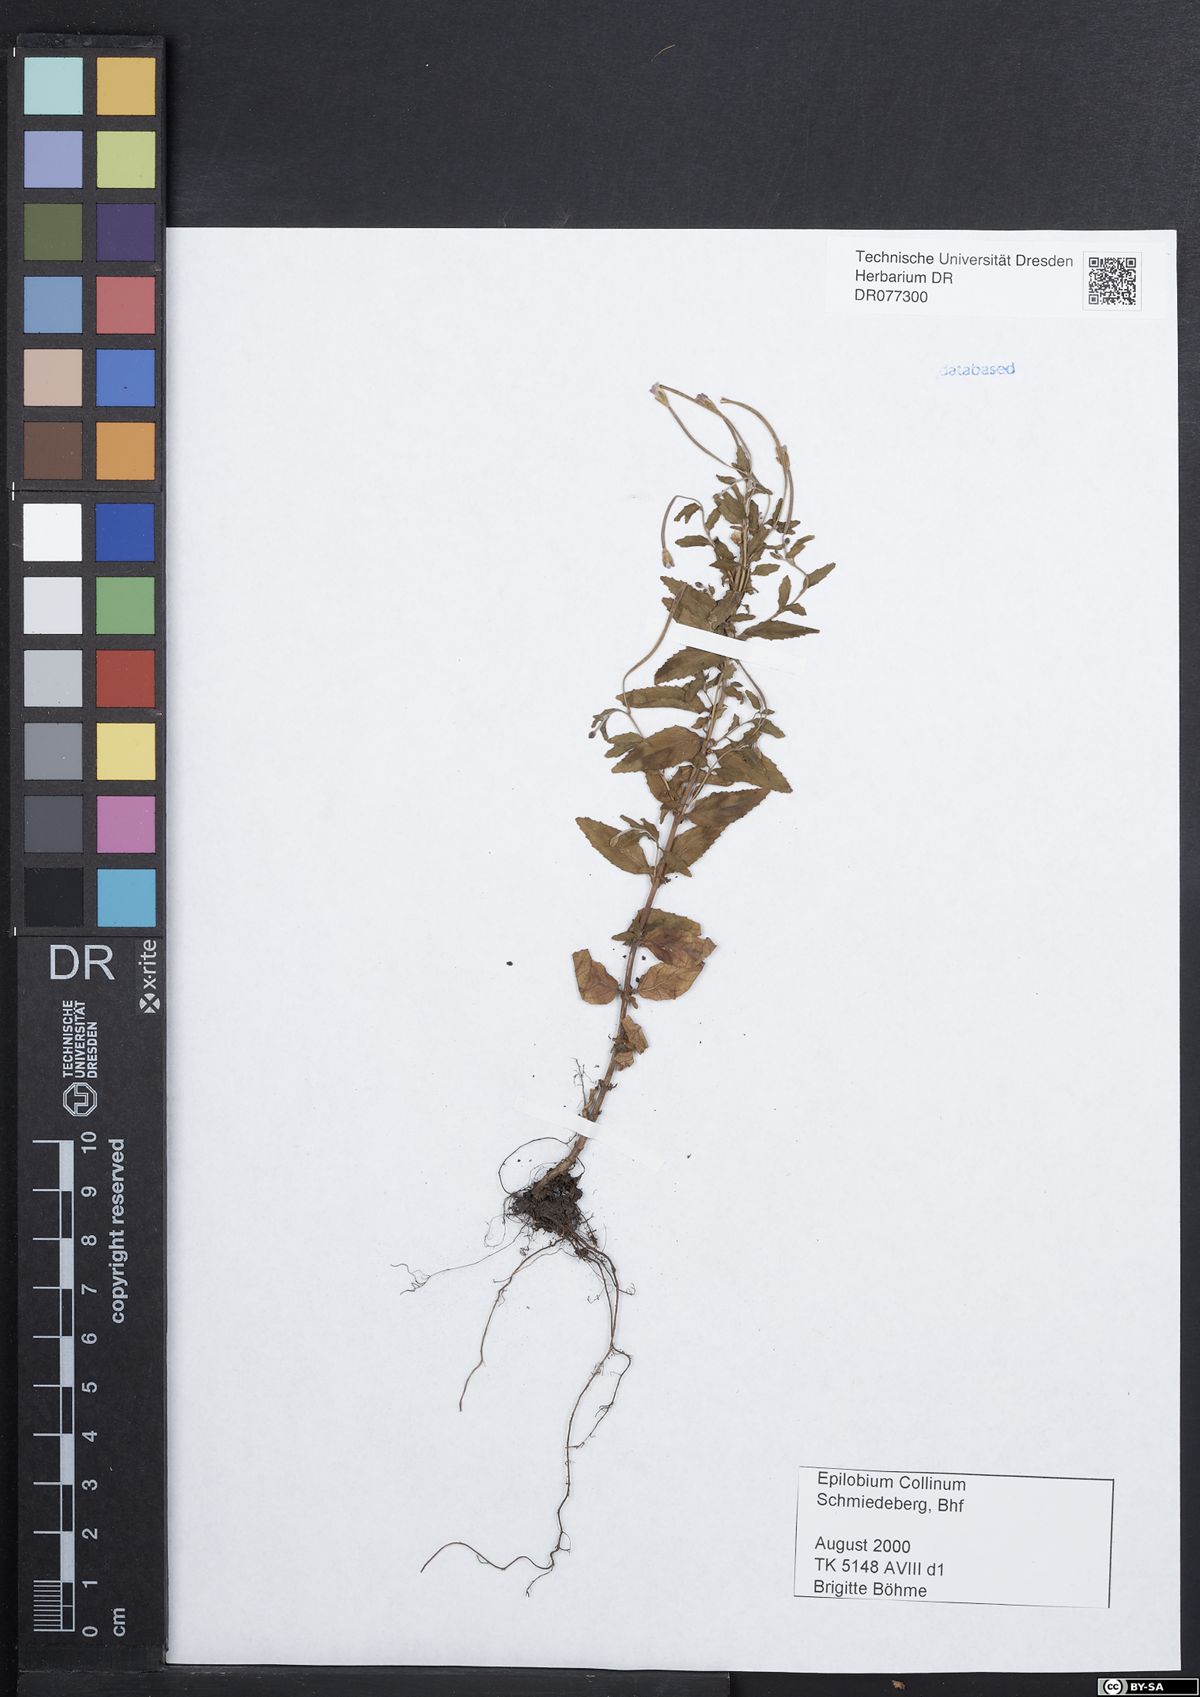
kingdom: Plantae
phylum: Tracheophyta
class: Magnoliopsida
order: Myrtales
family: Onagraceae
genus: Epilobium
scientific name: Epilobium collinum
